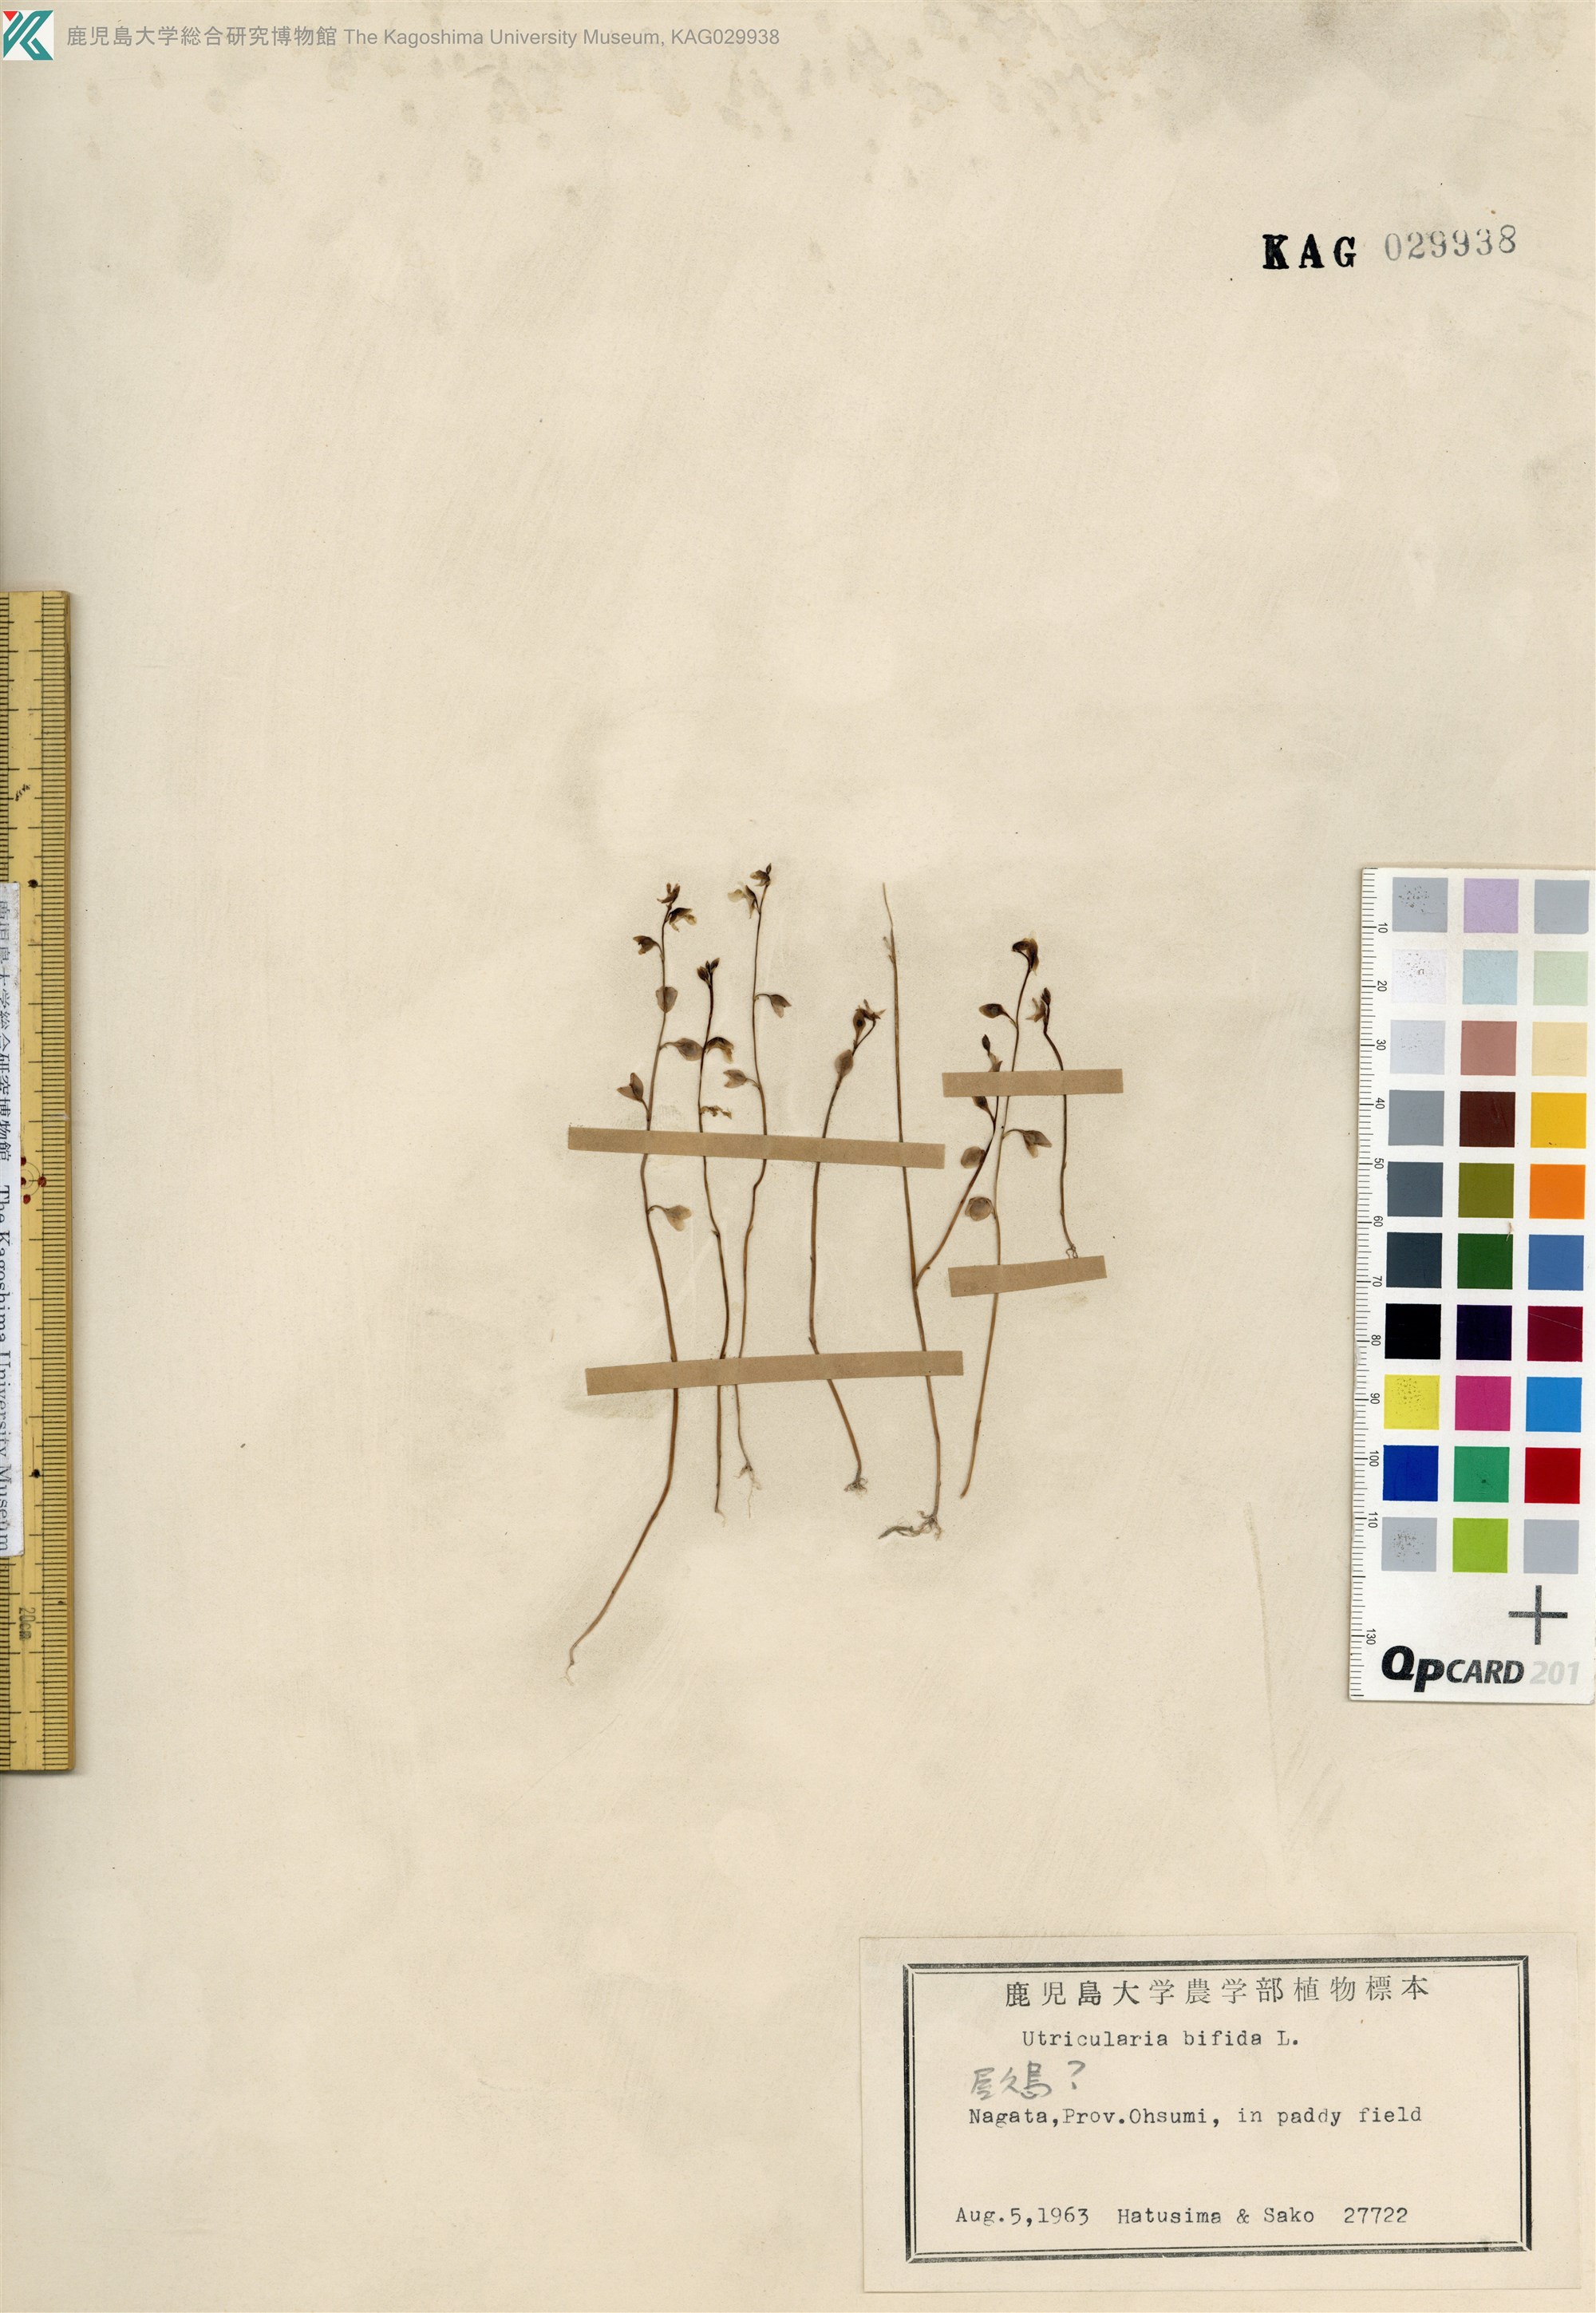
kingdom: Plantae
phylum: Tracheophyta
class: Magnoliopsida
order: Lamiales
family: Lentibulariaceae
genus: Utricularia
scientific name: Utricularia bifida
